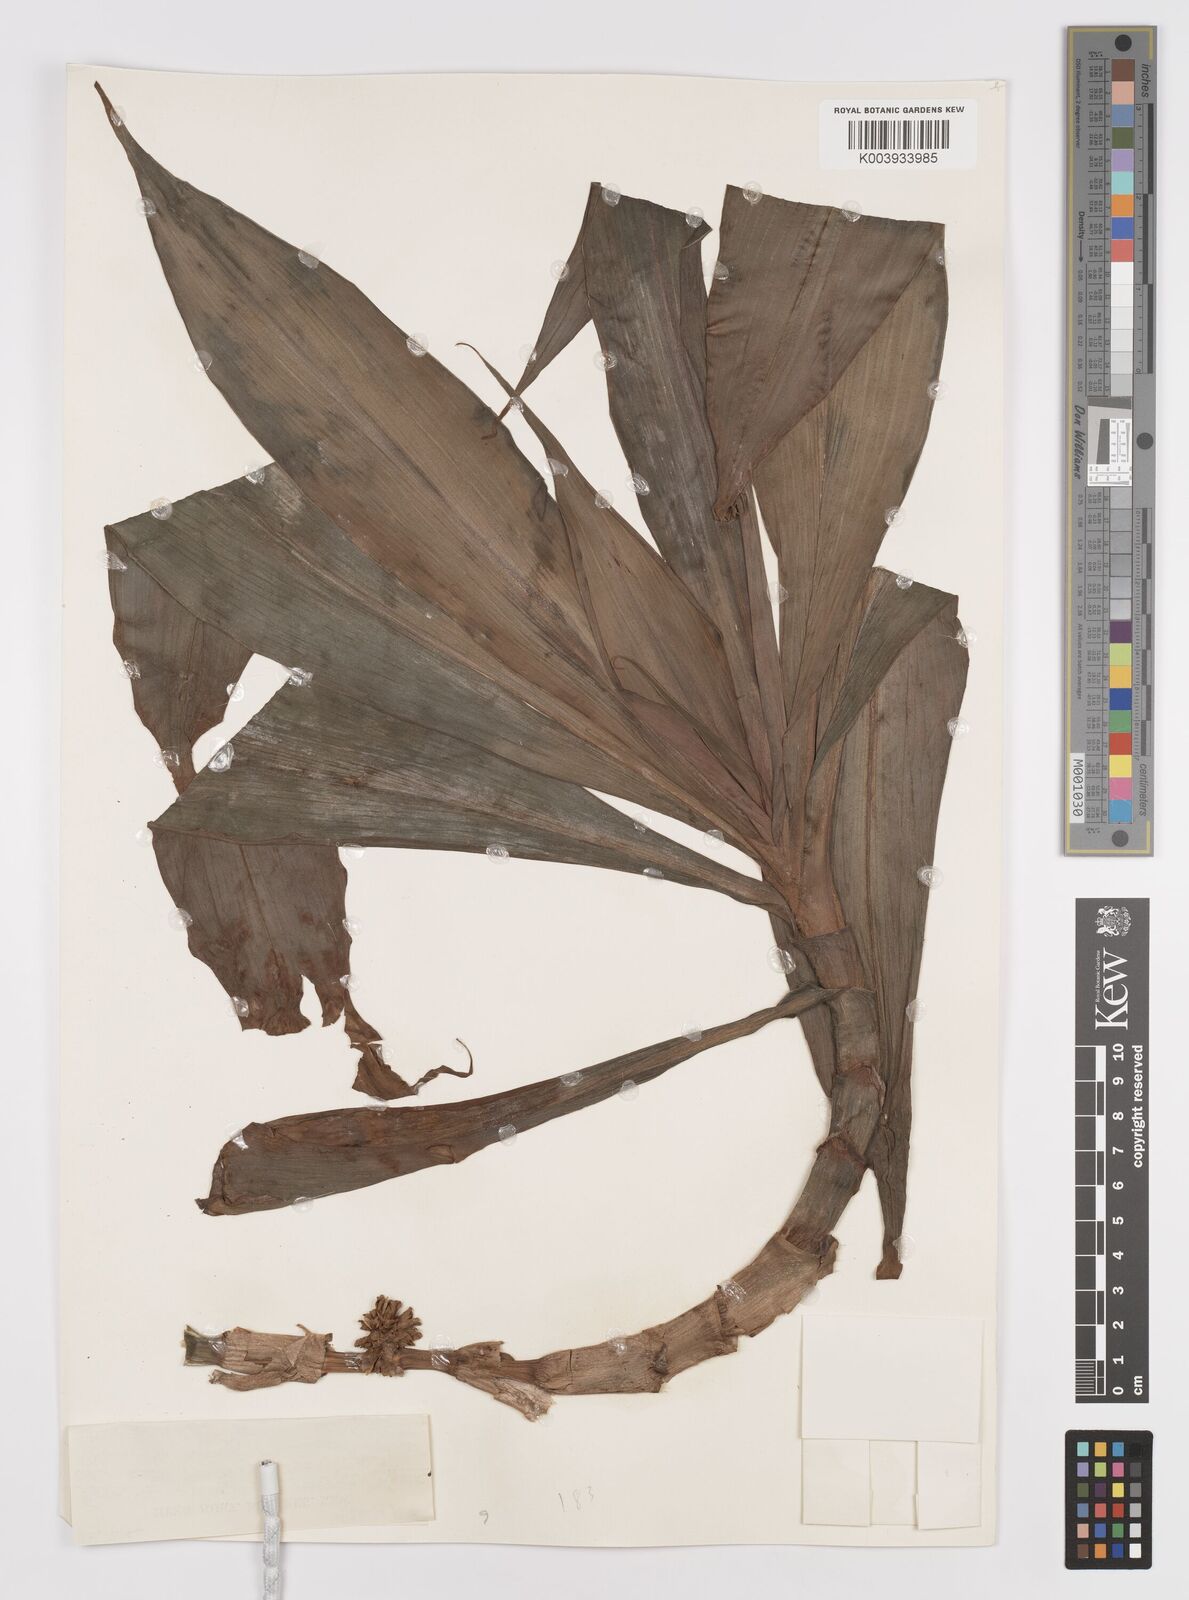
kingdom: Plantae
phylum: Tracheophyta
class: Liliopsida
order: Commelinales
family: Commelinaceae
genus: Amischotolype
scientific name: Amischotolype marginata
